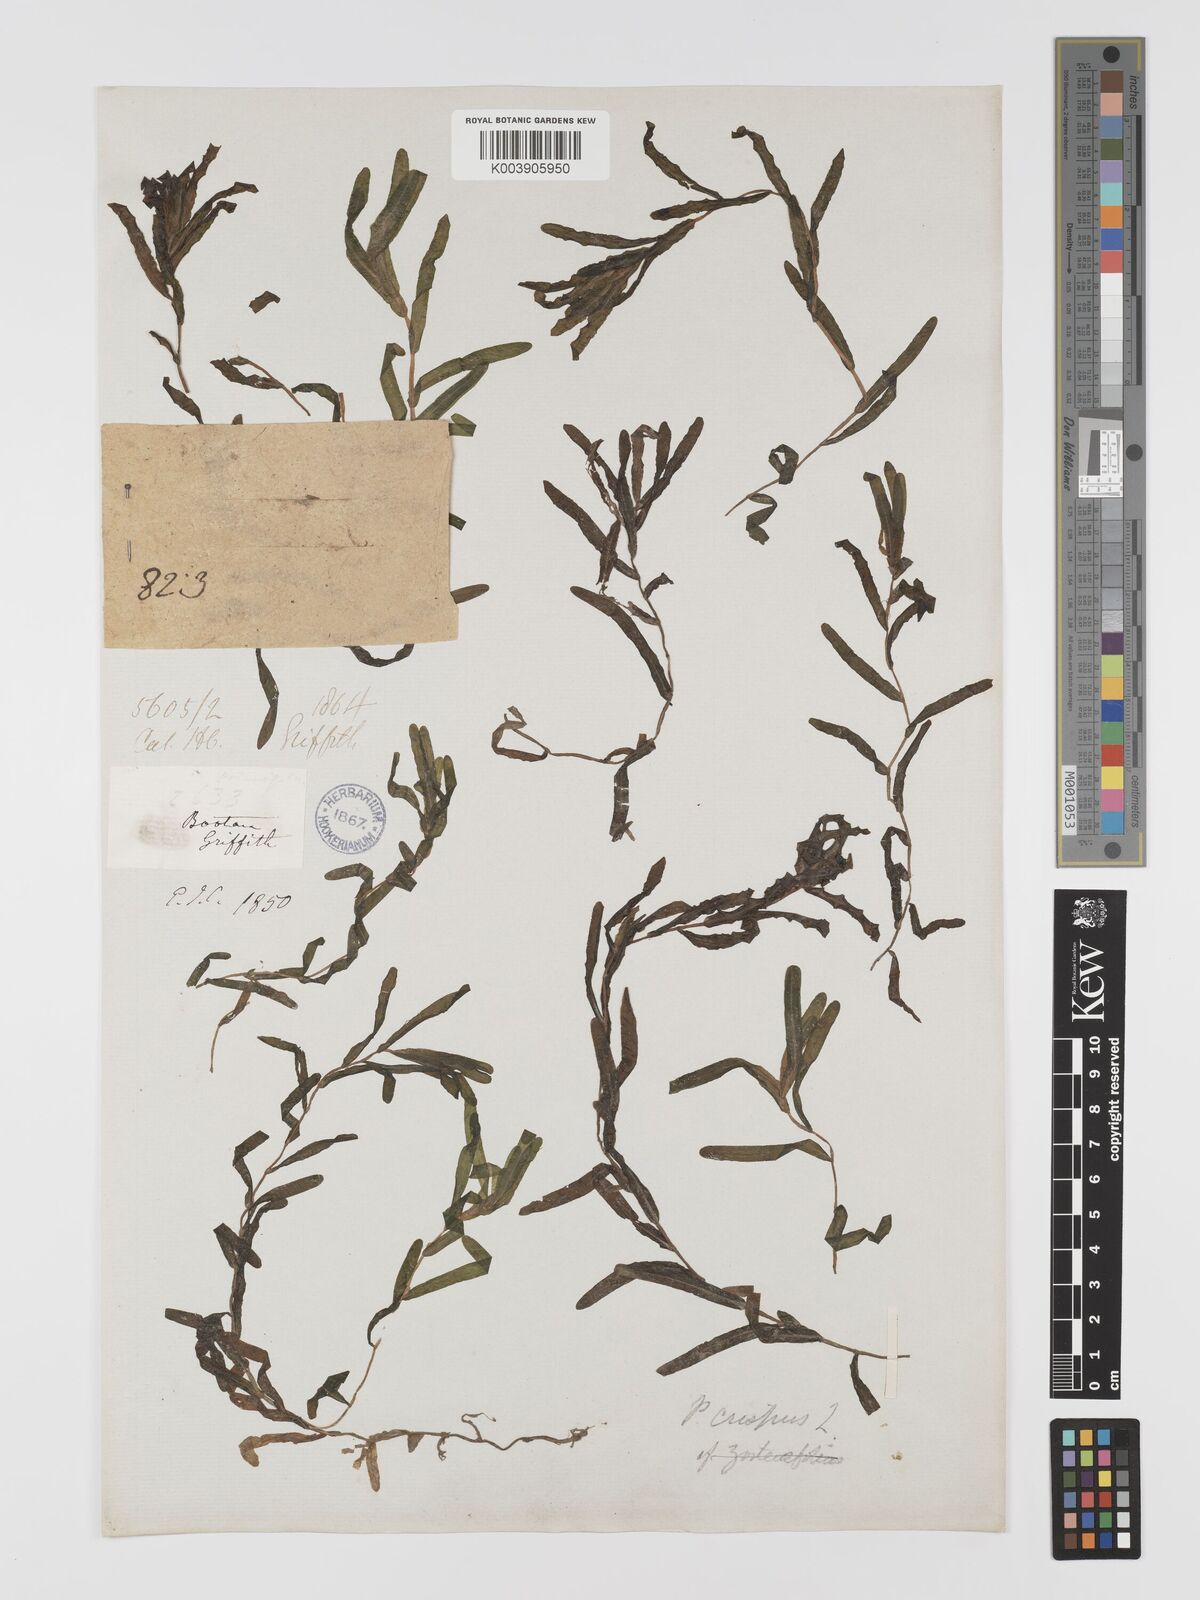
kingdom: Plantae
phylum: Tracheophyta
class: Liliopsida
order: Alismatales
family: Potamogetonaceae
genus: Potamogeton
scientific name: Potamogeton crispus
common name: Curled pondweed
